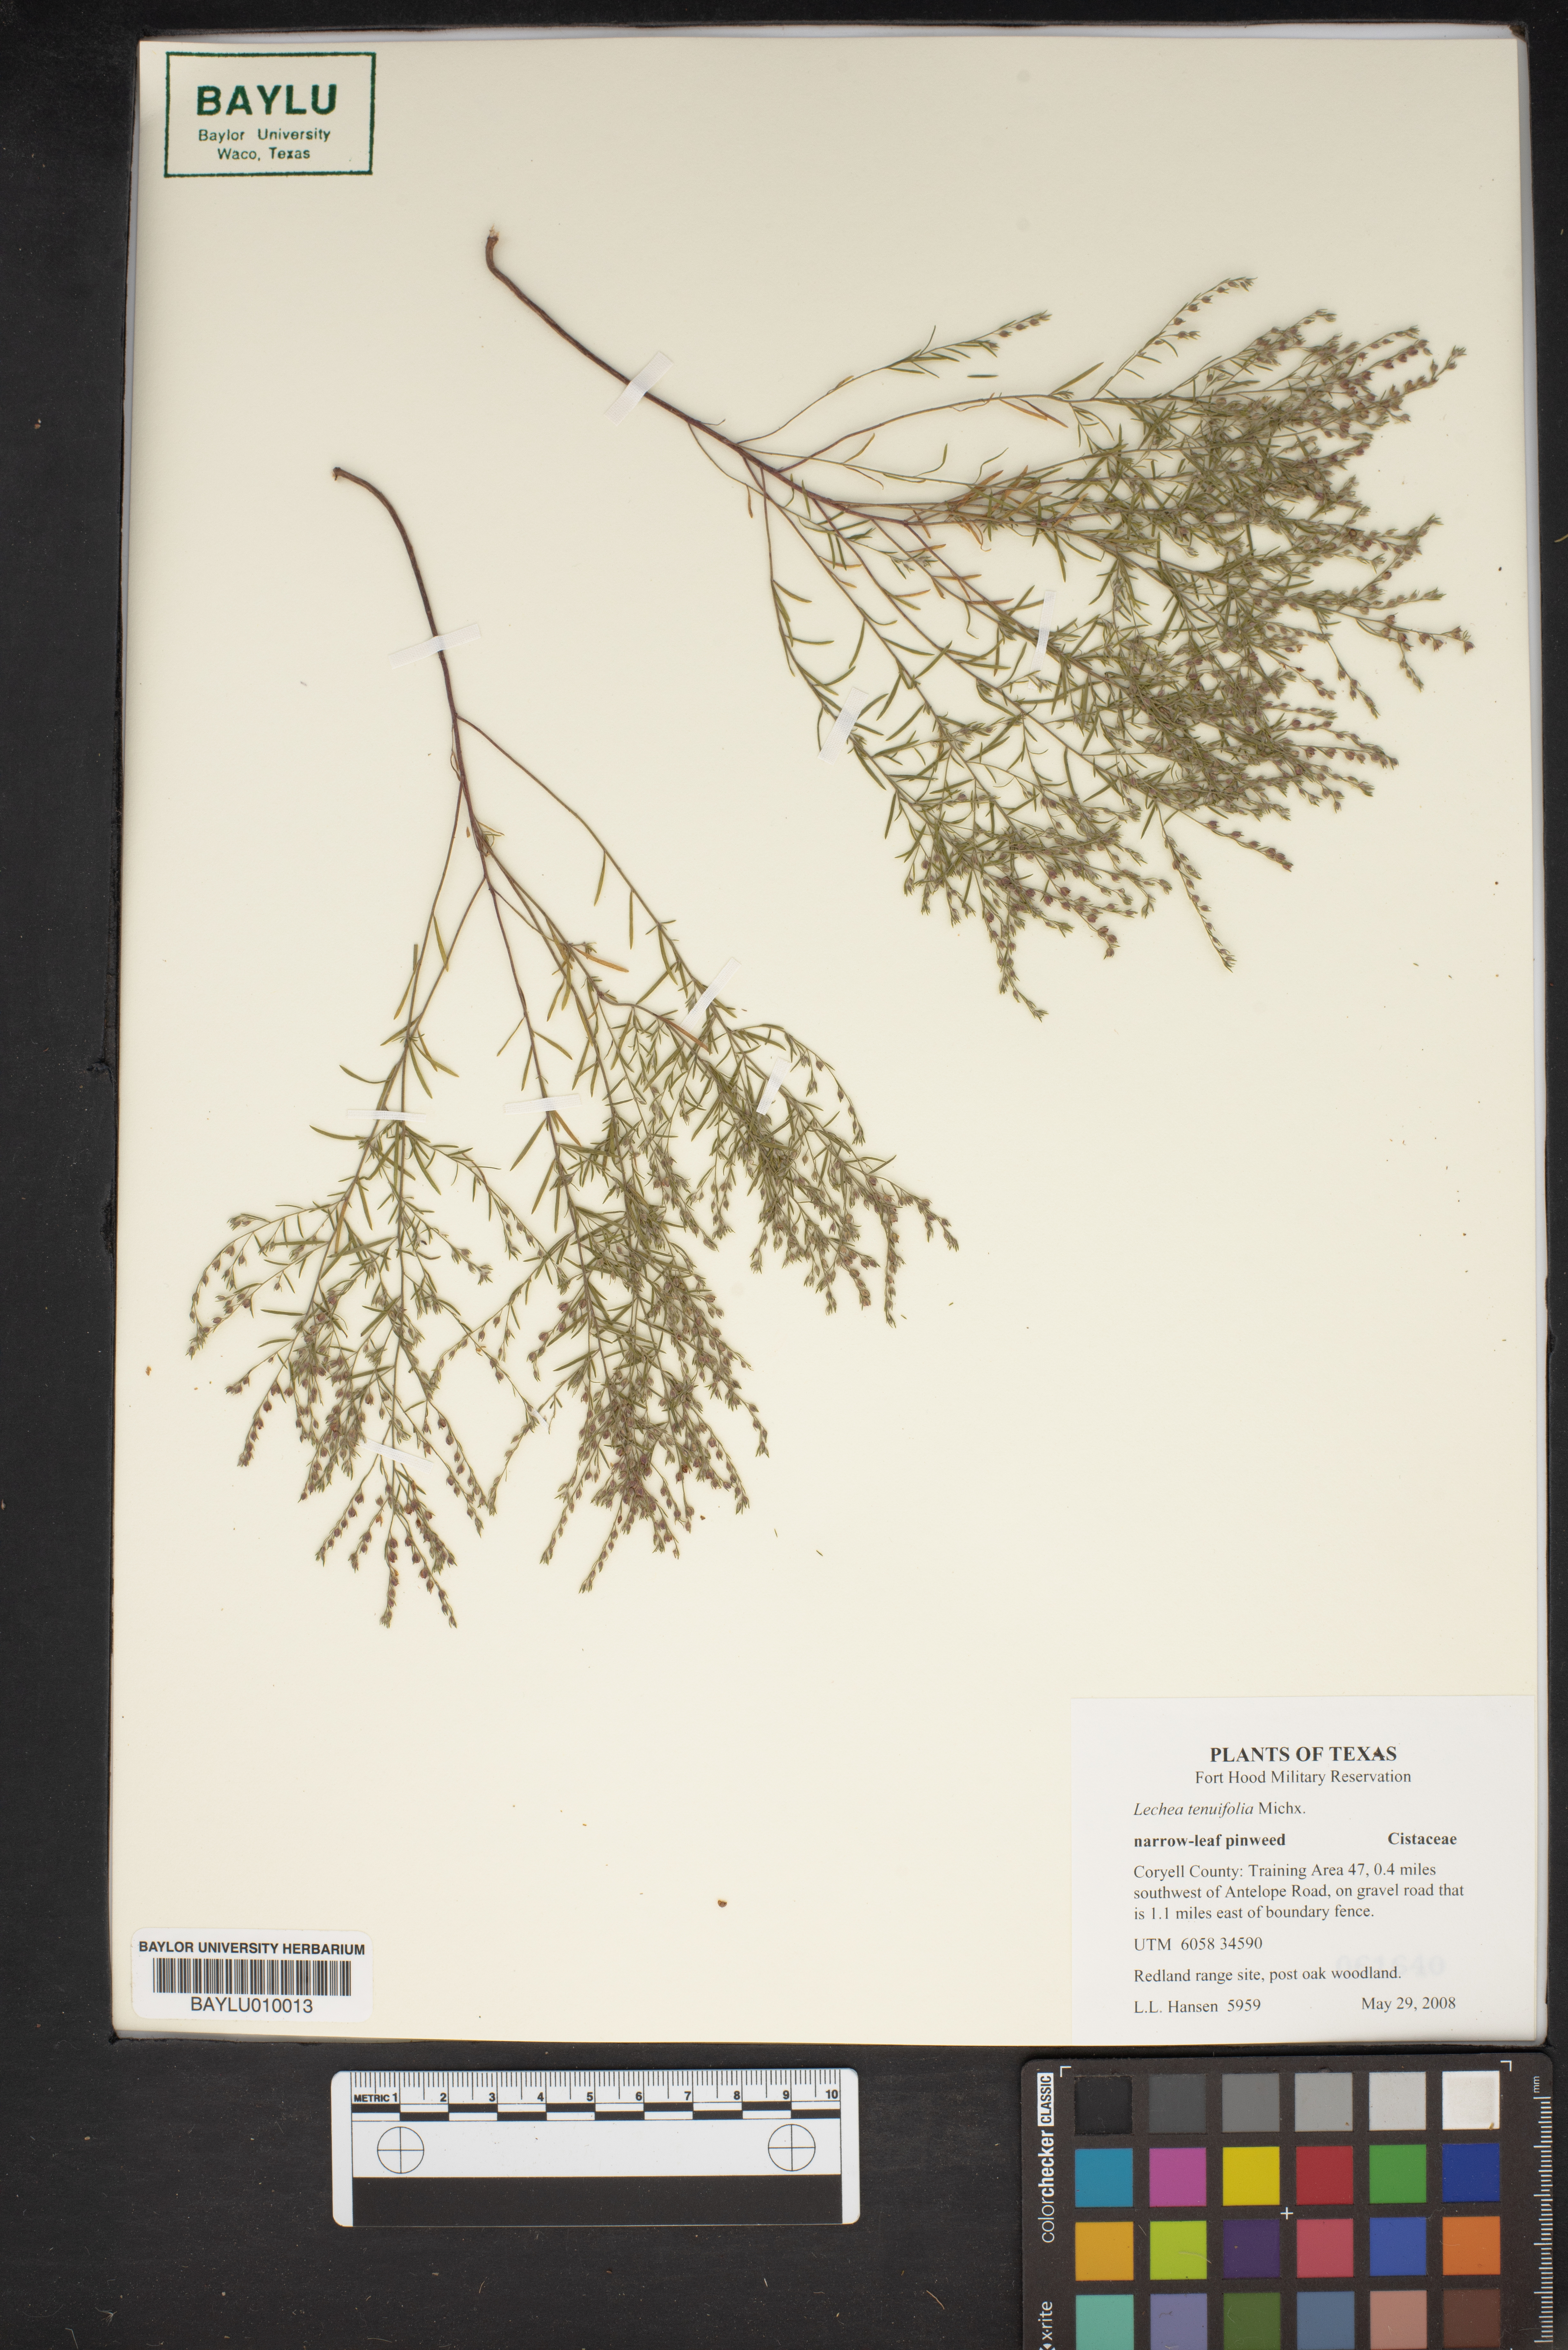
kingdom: Plantae
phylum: Tracheophyta
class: Magnoliopsida
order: Malvales
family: Cistaceae
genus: Lechea
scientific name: Lechea tenuifolia
